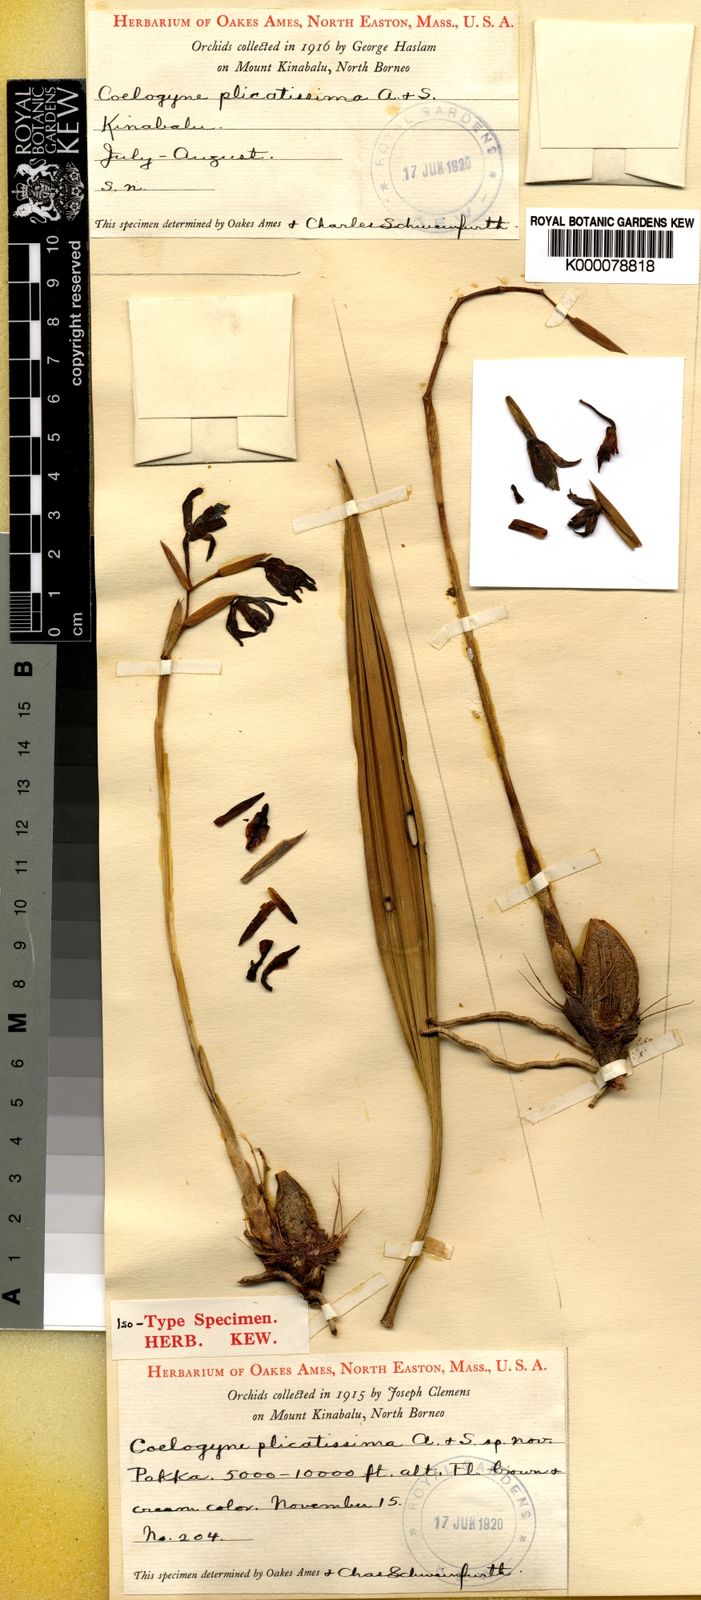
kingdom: Plantae
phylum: Tracheophyta
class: Liliopsida
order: Asparagales
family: Orchidaceae
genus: Coelogyne
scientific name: Coelogyne plicatissima
